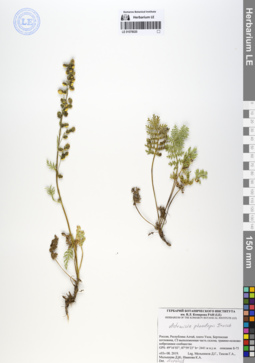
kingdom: Plantae
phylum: Tracheophyta
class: Magnoliopsida
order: Asterales
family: Asteraceae
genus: Artemisia
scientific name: Artemisia phaeolepis
